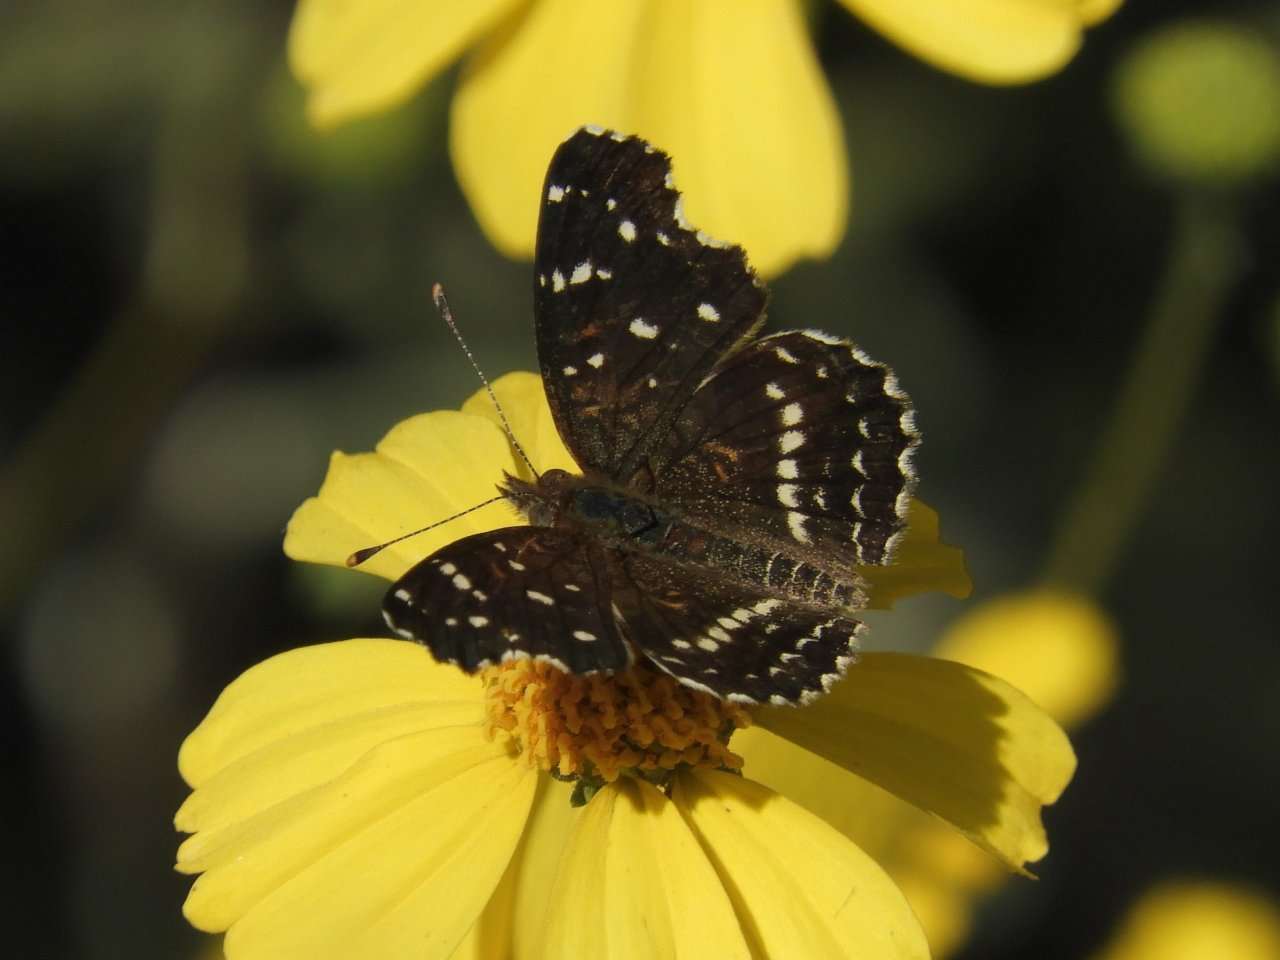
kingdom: Animalia
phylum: Arthropoda
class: Insecta
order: Lepidoptera
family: Nymphalidae
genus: Anthanassa
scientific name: Anthanassa texana
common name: Texan Crescent
